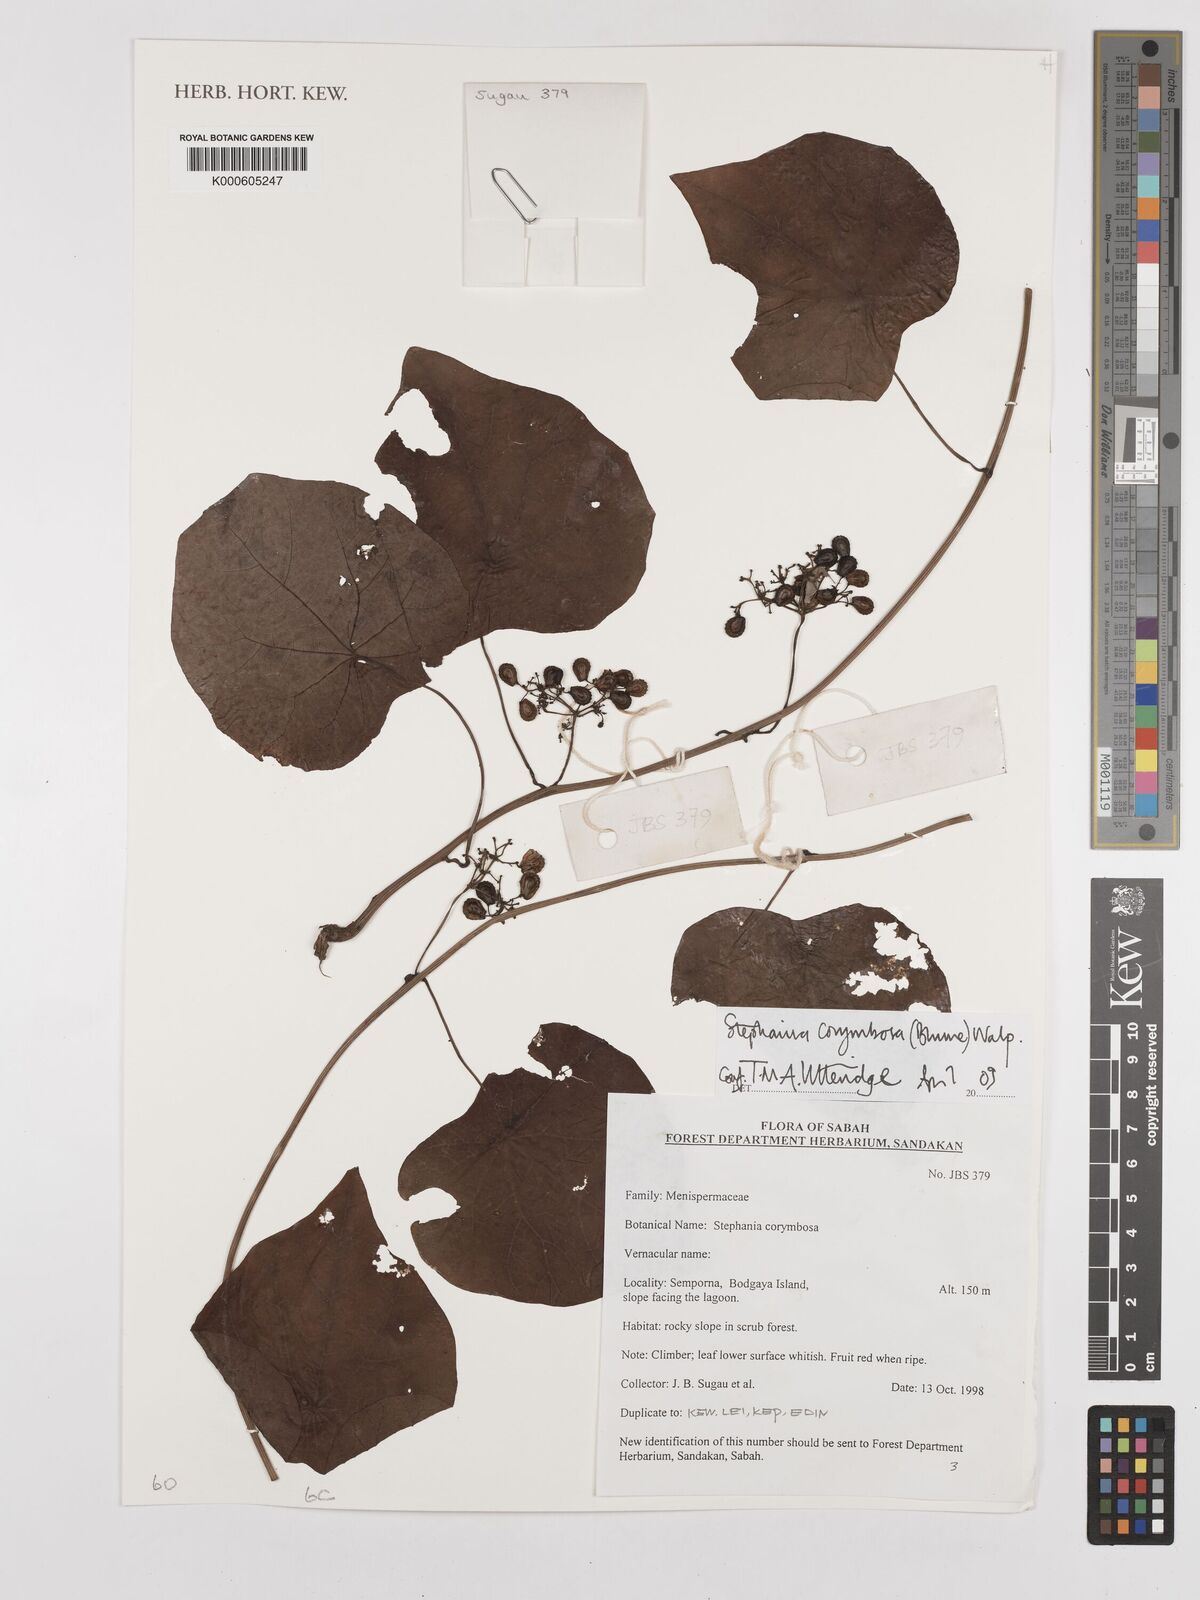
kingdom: Plantae
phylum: Tracheophyta
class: Magnoliopsida
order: Ranunculales
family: Menispermaceae
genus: Stephania
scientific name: Stephania corymbosa
